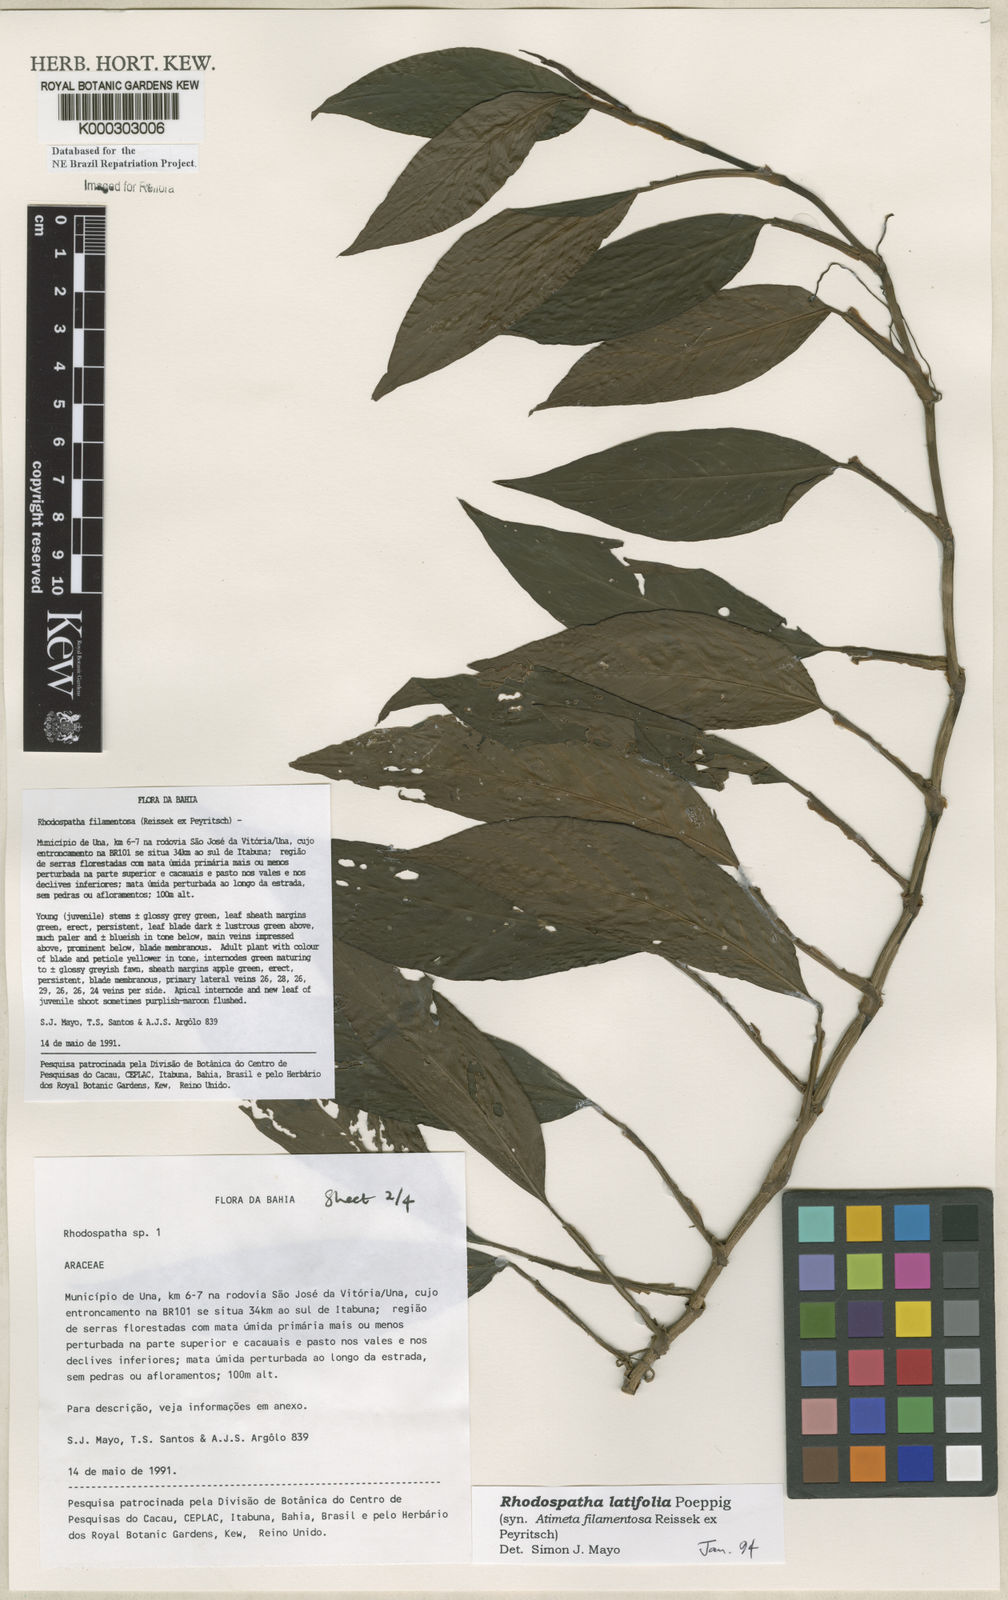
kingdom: Plantae
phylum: Tracheophyta
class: Liliopsida
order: Alismatales
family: Araceae
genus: Rhodospatha
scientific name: Rhodospatha latifolia
